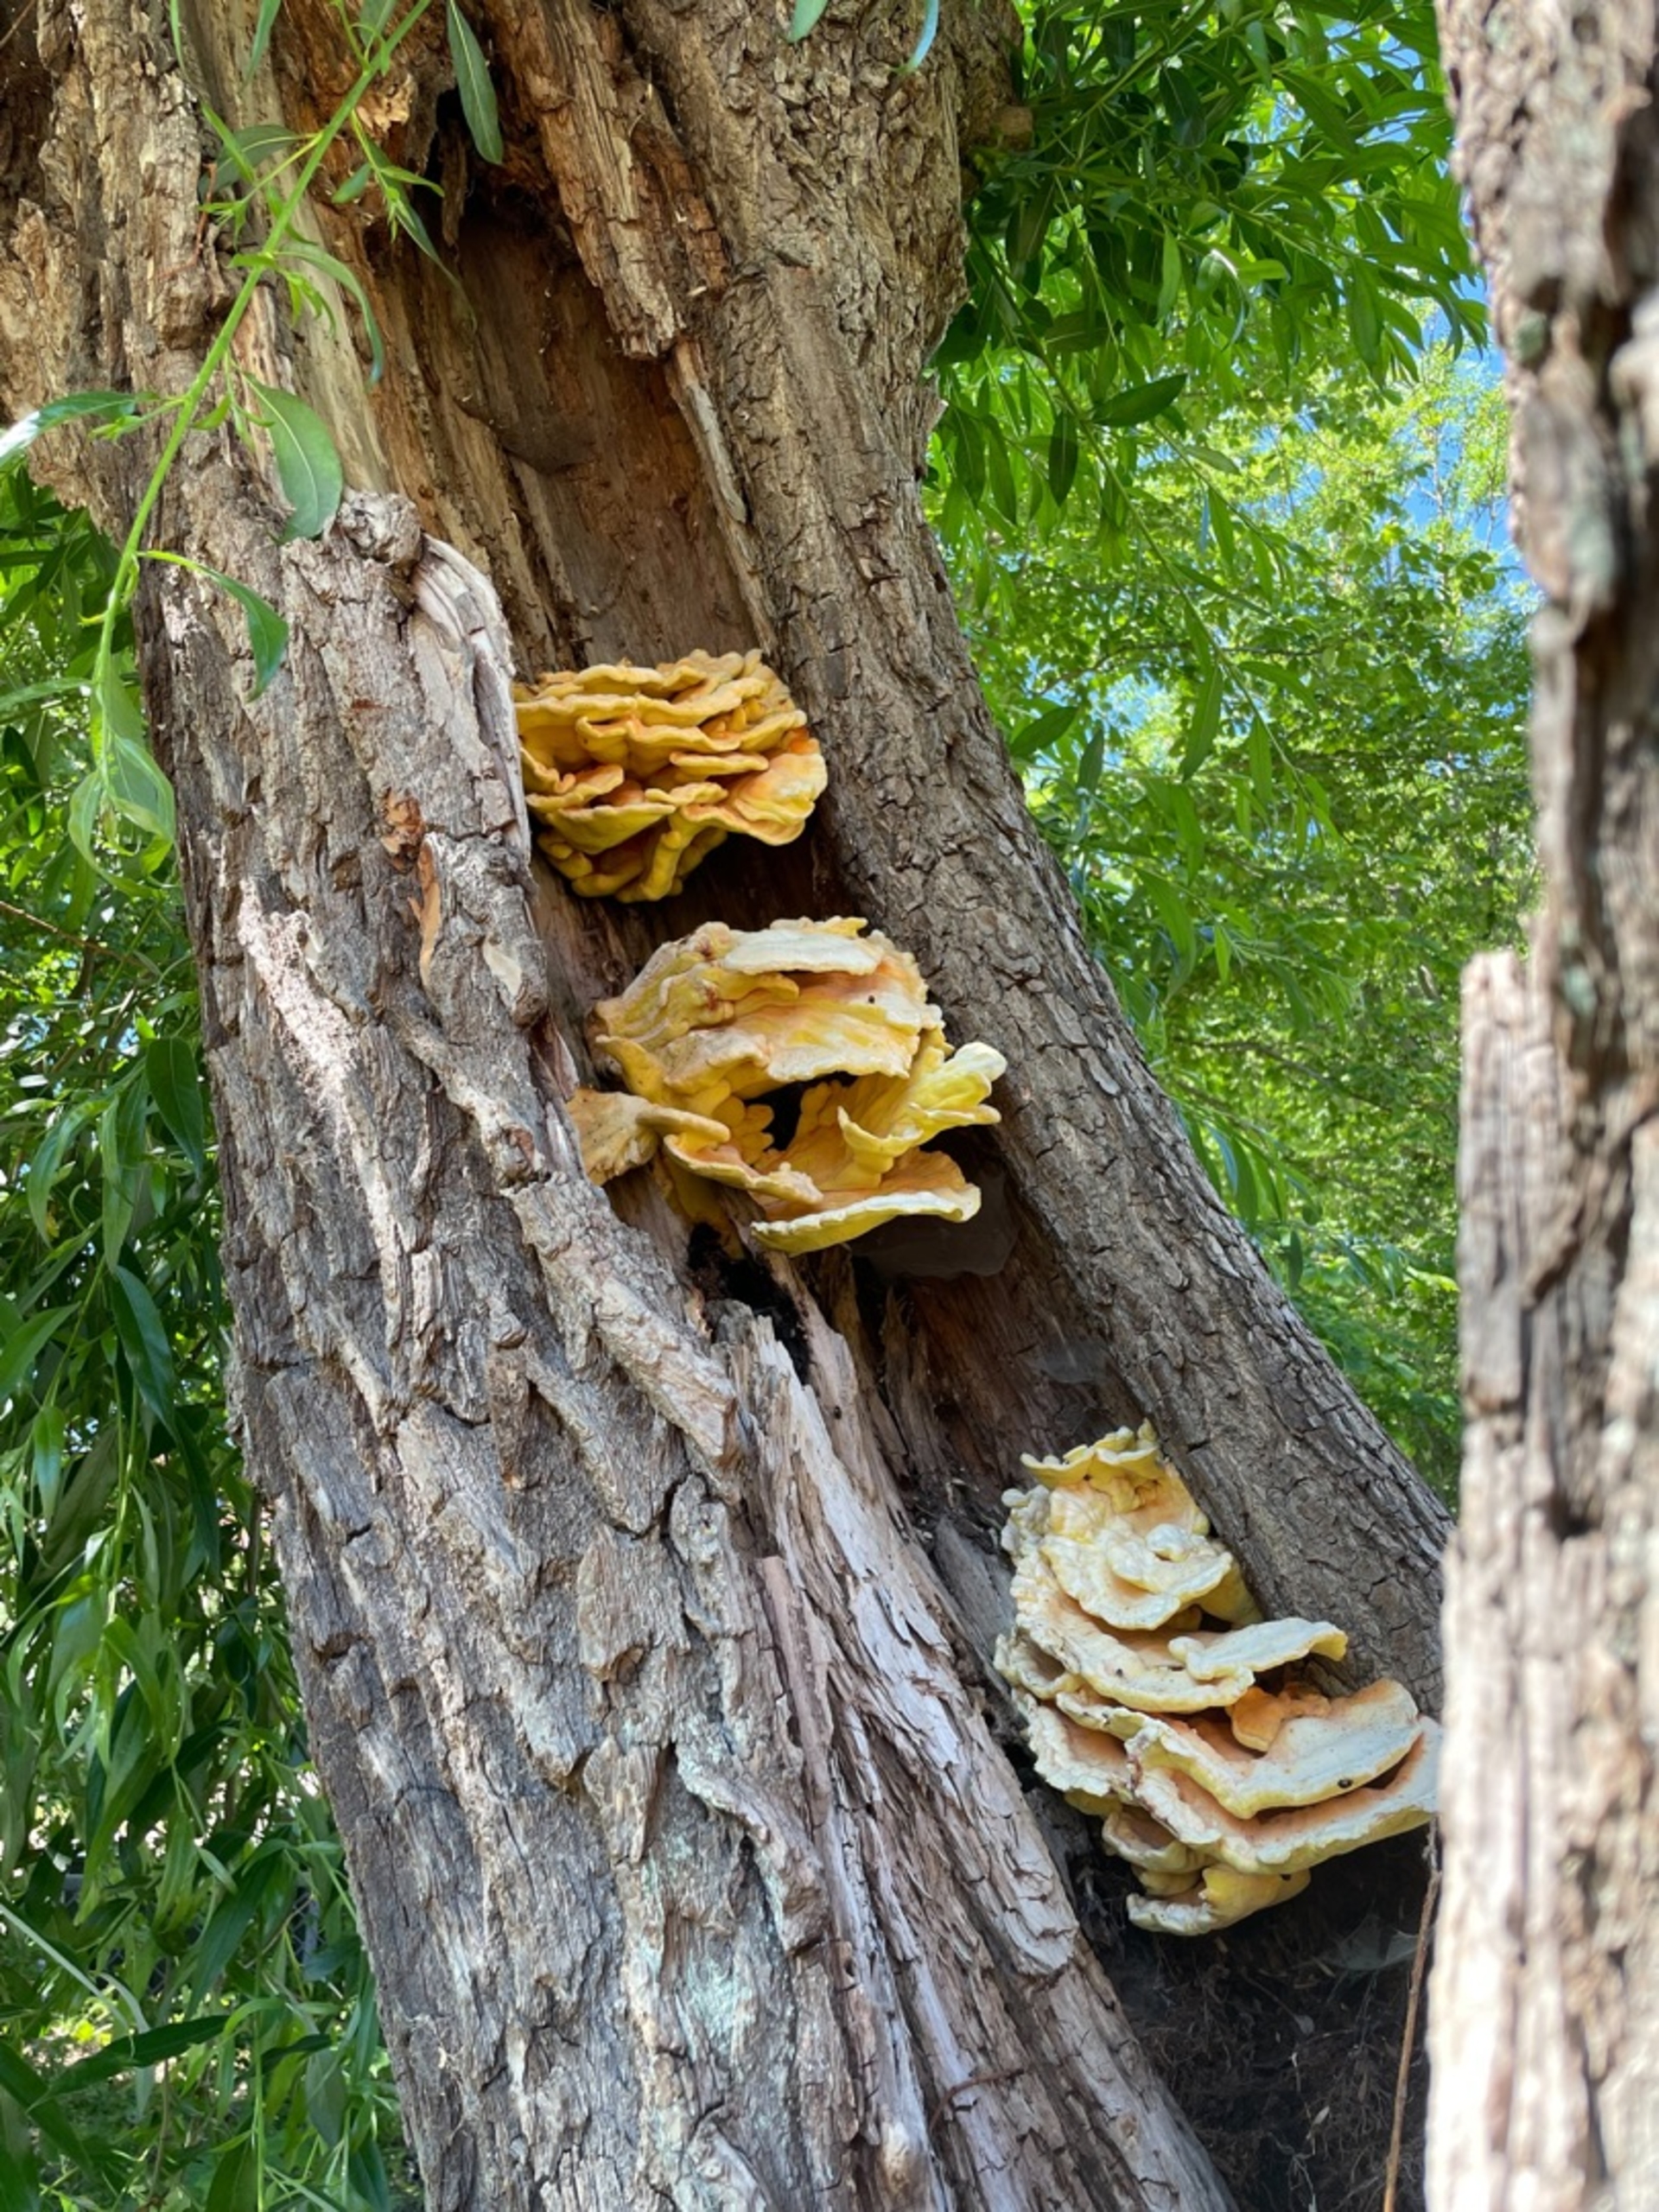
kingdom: Fungi
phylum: Basidiomycota
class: Agaricomycetes
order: Polyporales
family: Laetiporaceae
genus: Laetiporus
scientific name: Laetiporus
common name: Svovlporesvamp
